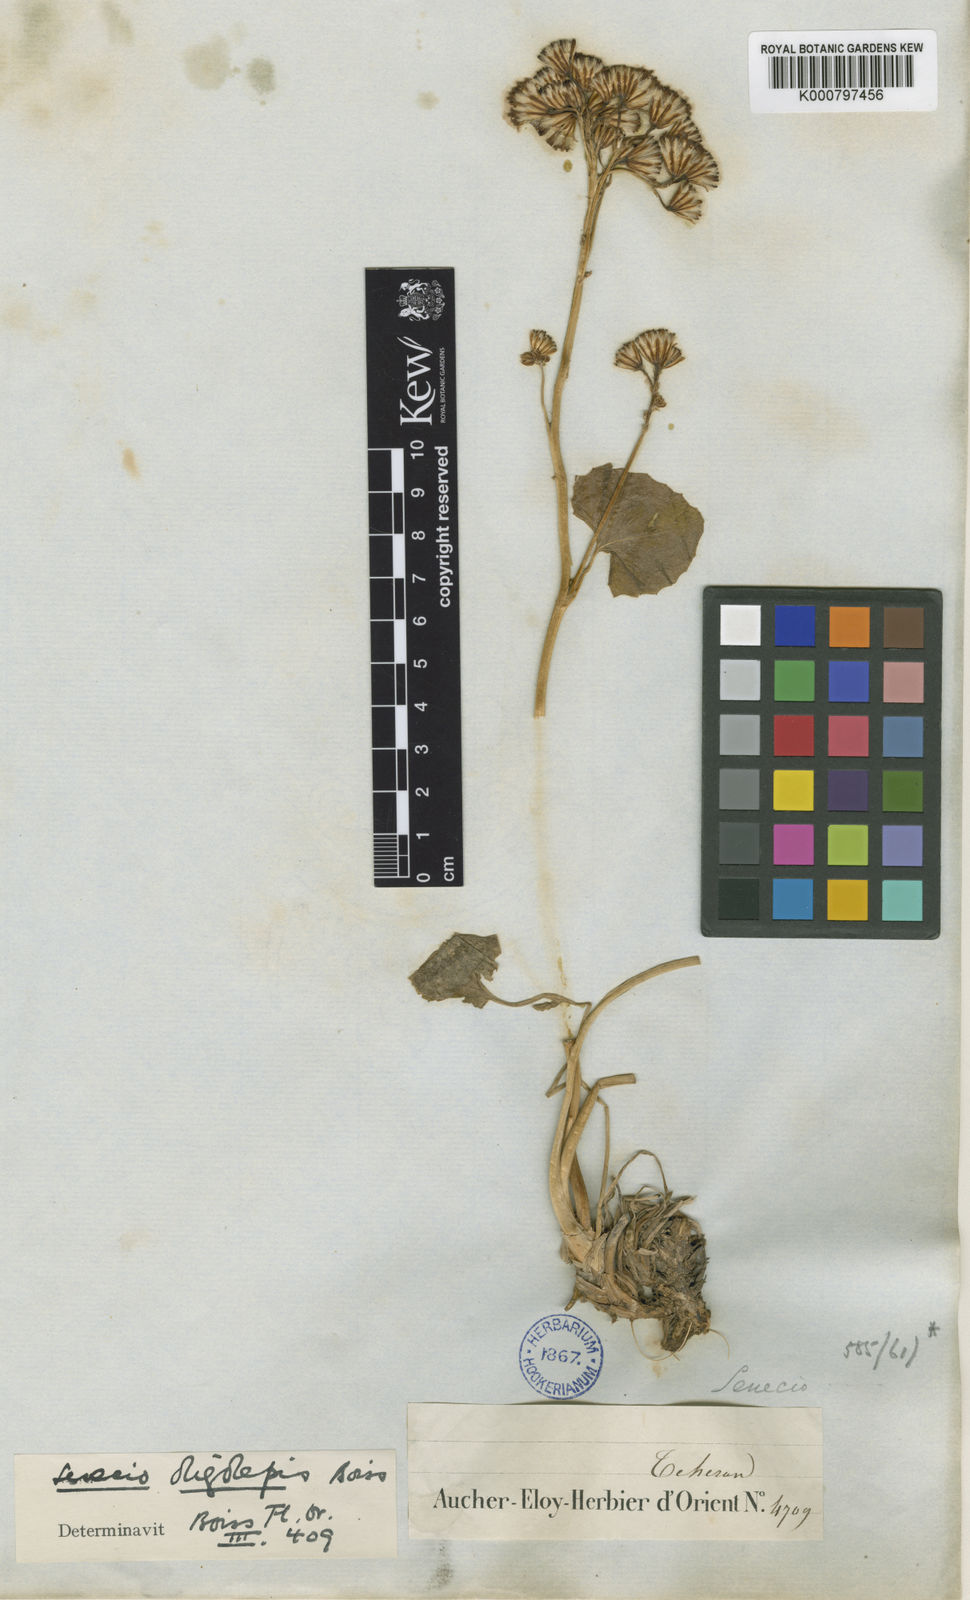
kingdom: Plantae
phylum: Tracheophyta
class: Magnoliopsida
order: Asterales
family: Asteraceae
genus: Iranecio
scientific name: Iranecio oligolepis
